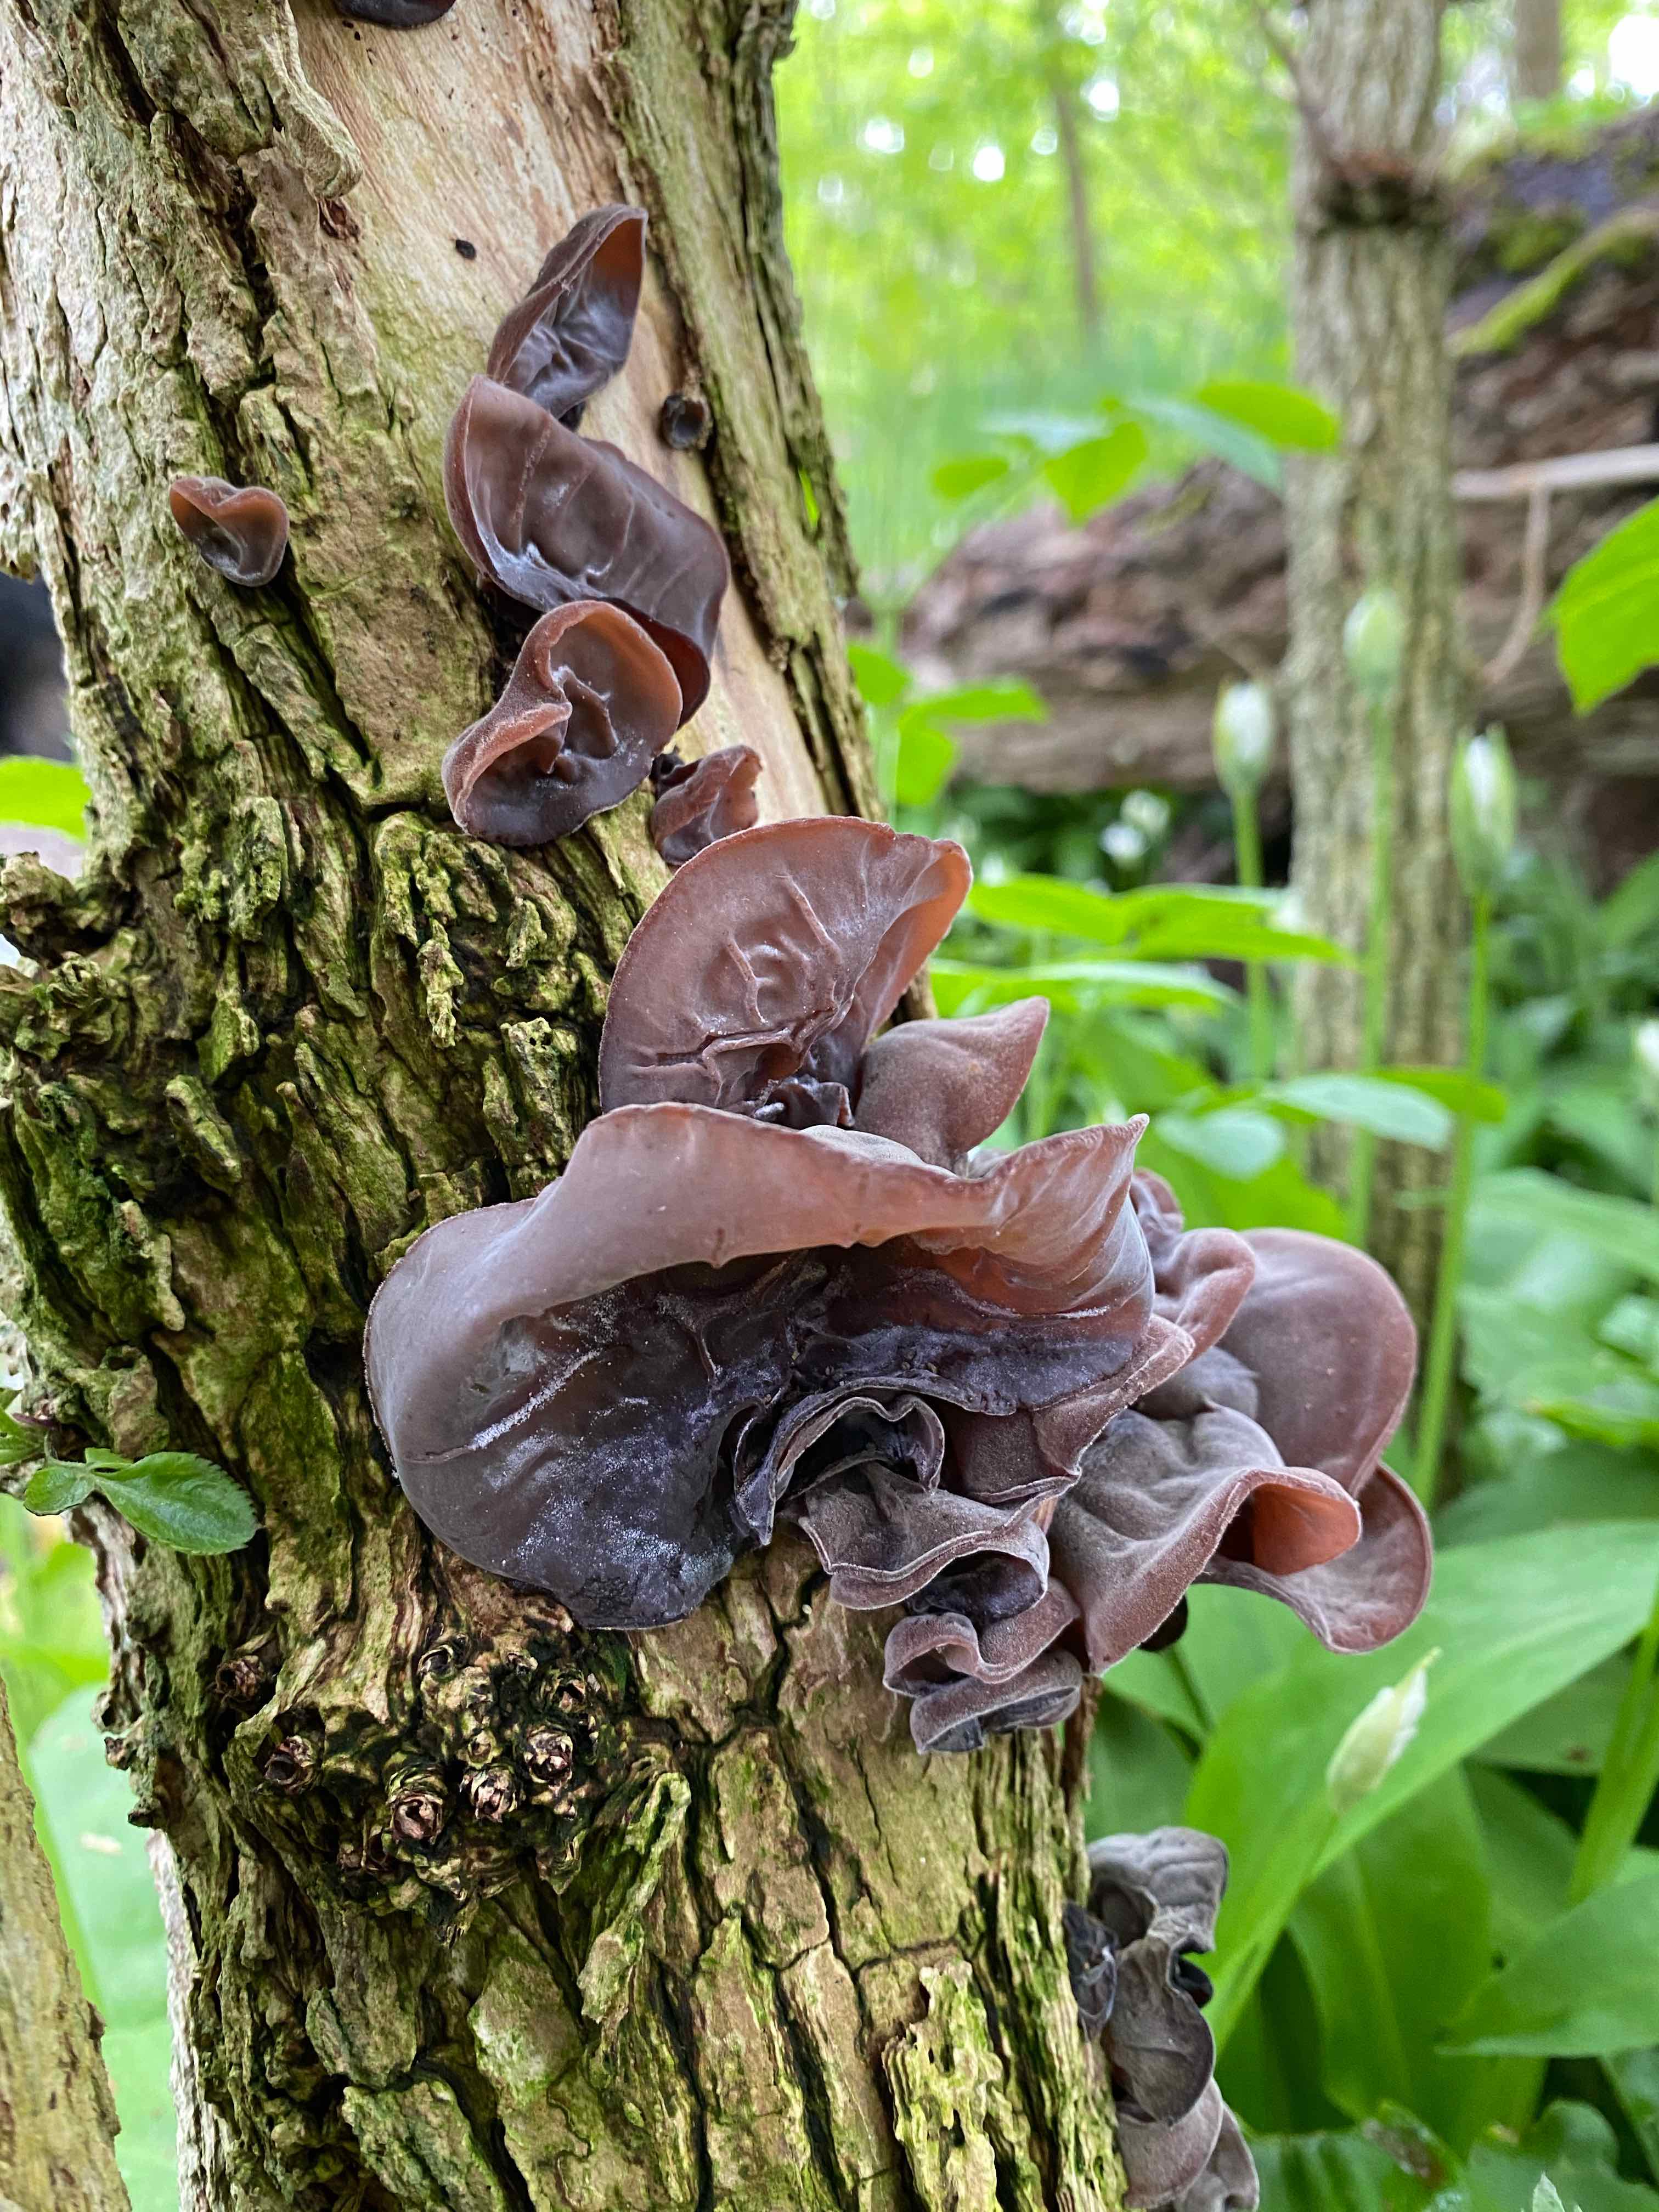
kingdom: Fungi
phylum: Basidiomycota
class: Agaricomycetes
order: Auriculariales
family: Auriculariaceae
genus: Auricularia
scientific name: Auricularia auricula-judae
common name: almindelig judasøre
